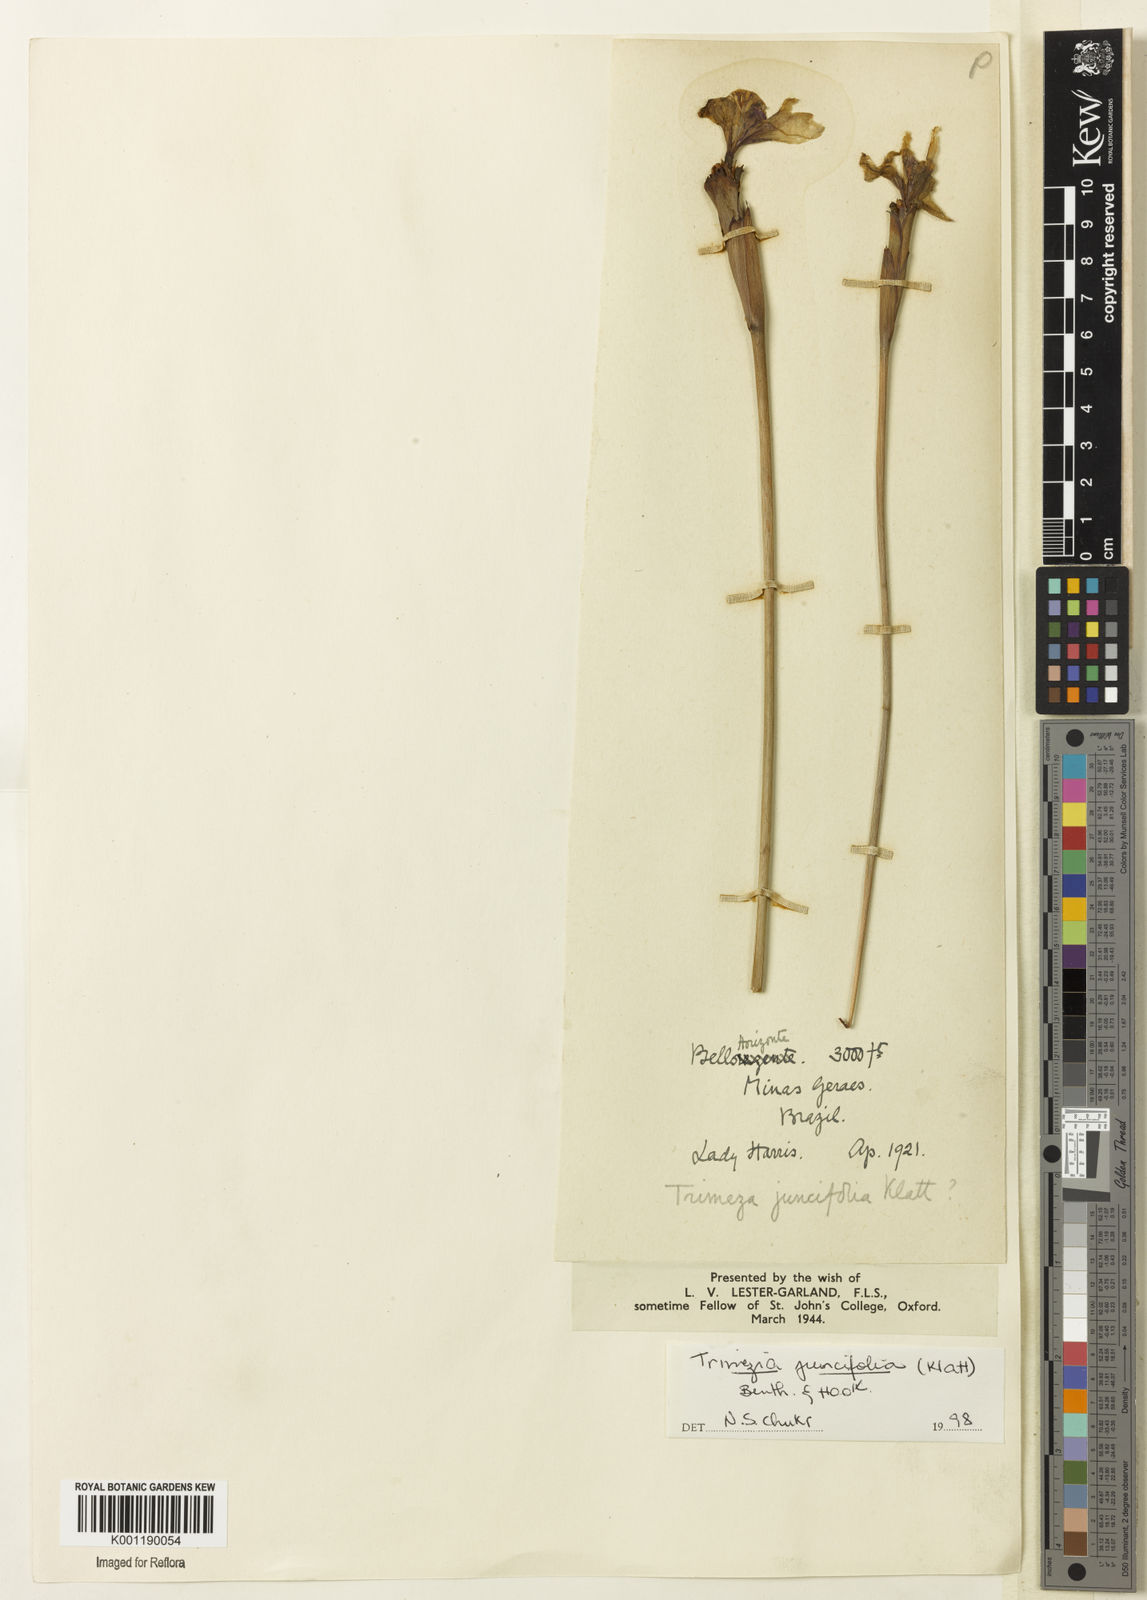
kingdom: Plantae
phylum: Tracheophyta
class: Liliopsida
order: Asparagales
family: Iridaceae
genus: Trimezia
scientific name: Trimezia juncifolia
